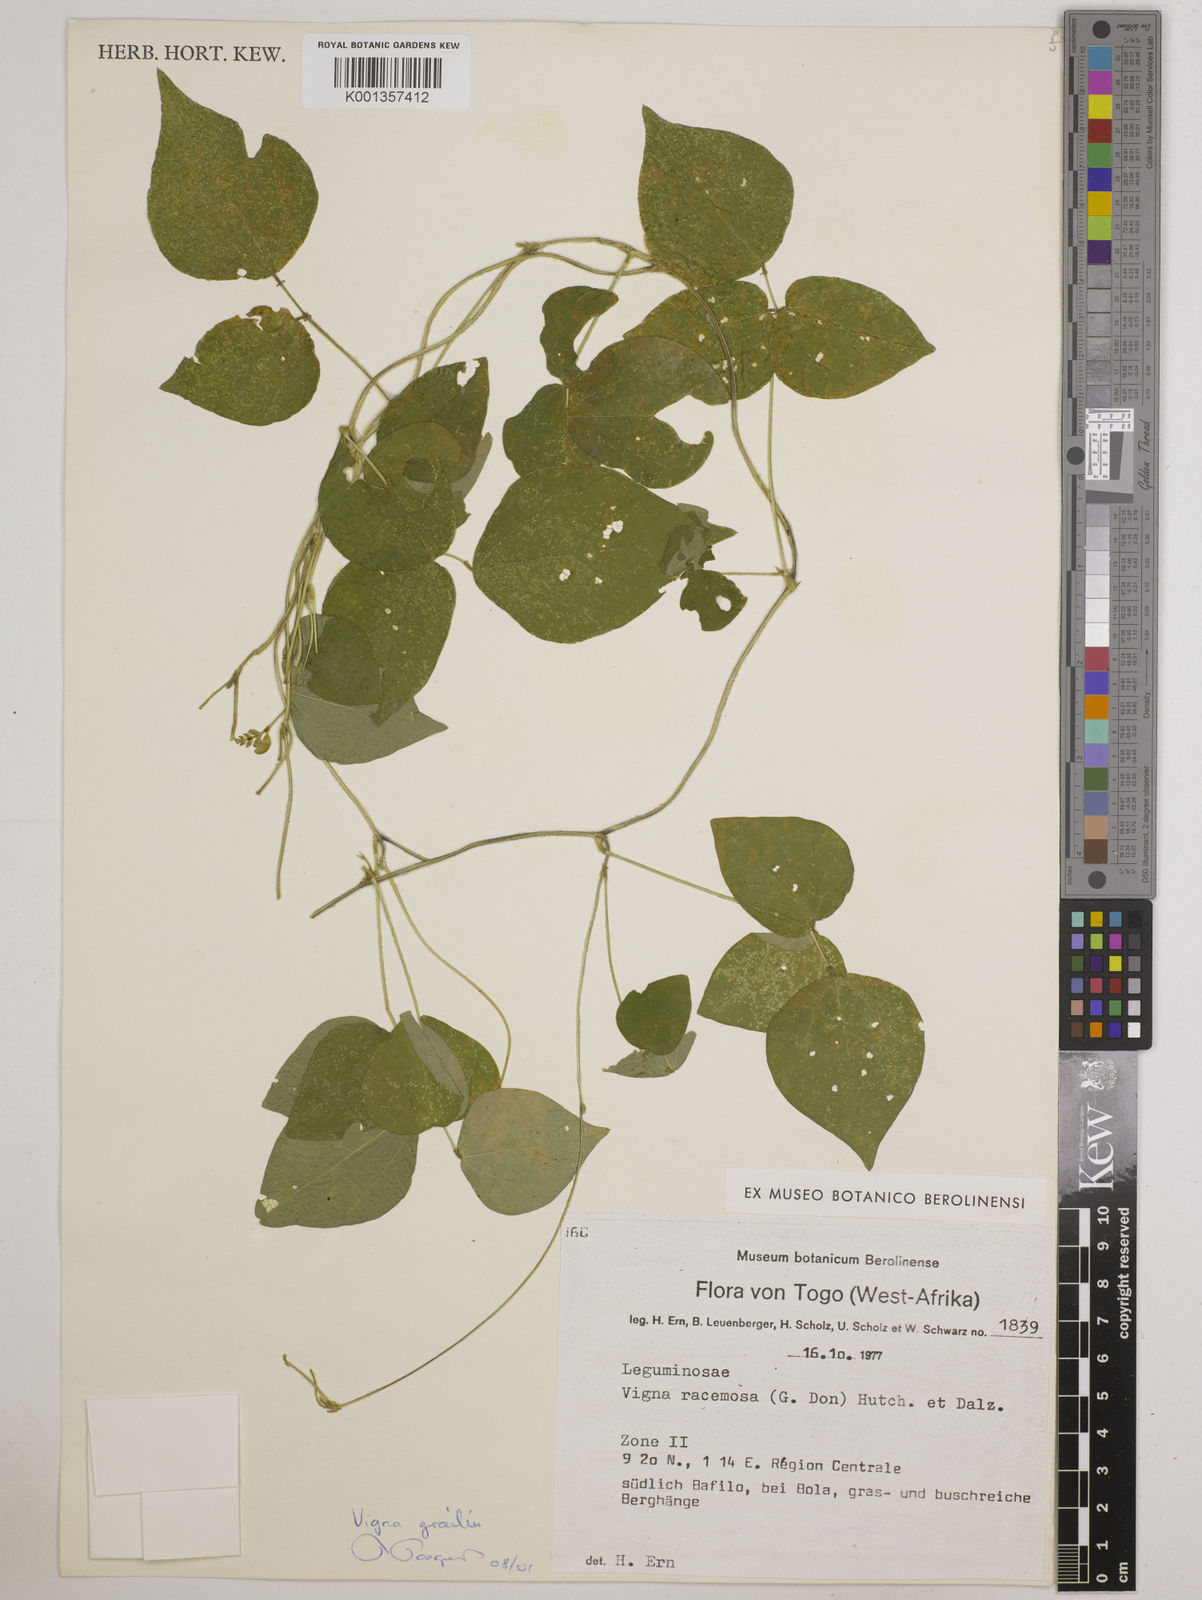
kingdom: Plantae
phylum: Tracheophyta
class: Magnoliopsida
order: Fabales
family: Fabaceae
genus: Vigna
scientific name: Vigna gracilis
